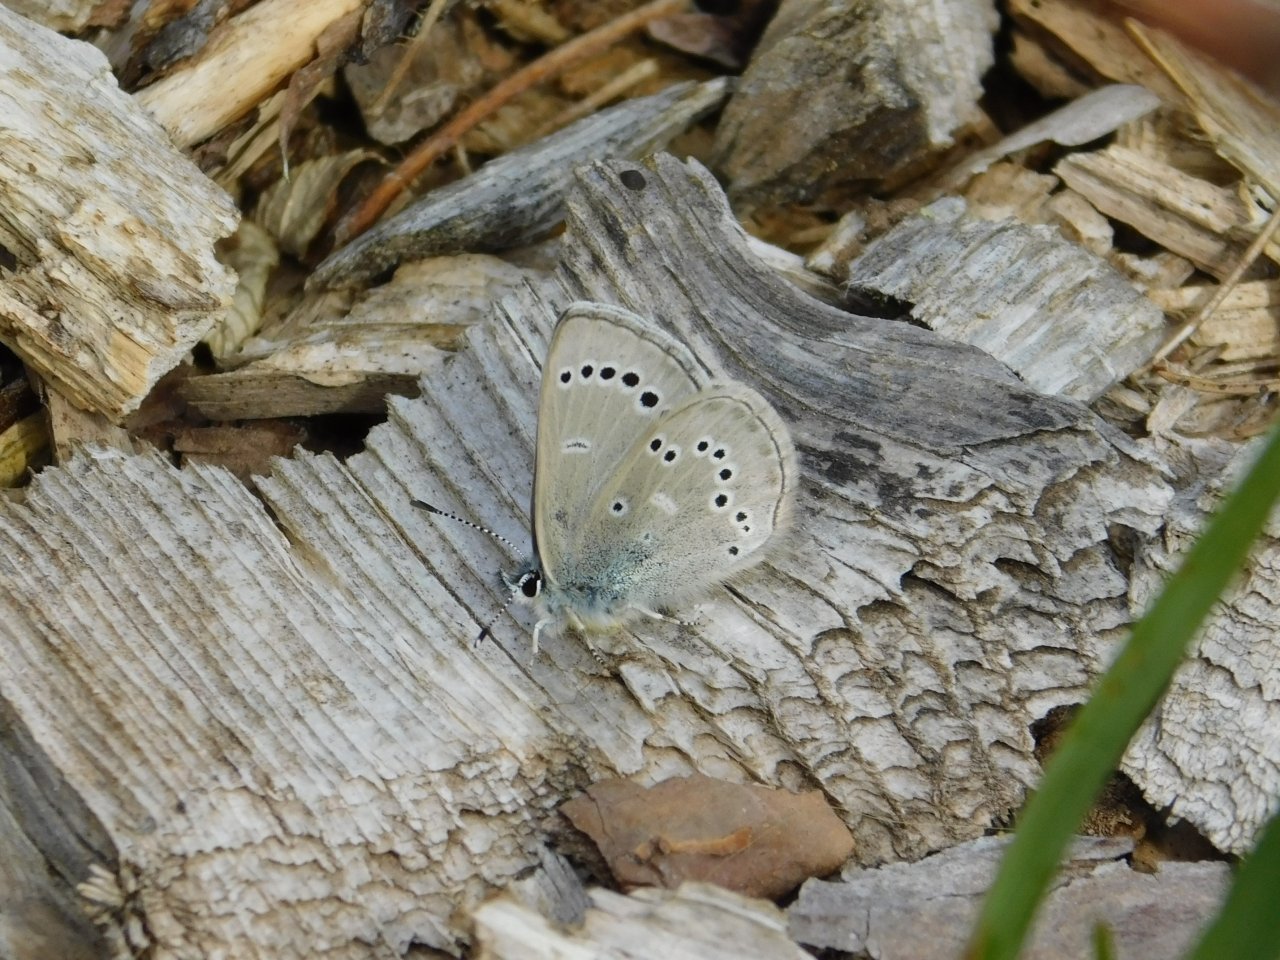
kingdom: Animalia
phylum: Arthropoda
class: Insecta
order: Lepidoptera
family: Lycaenidae
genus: Glaucopsyche
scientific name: Glaucopsyche lygdamus
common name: Silvery Blue
